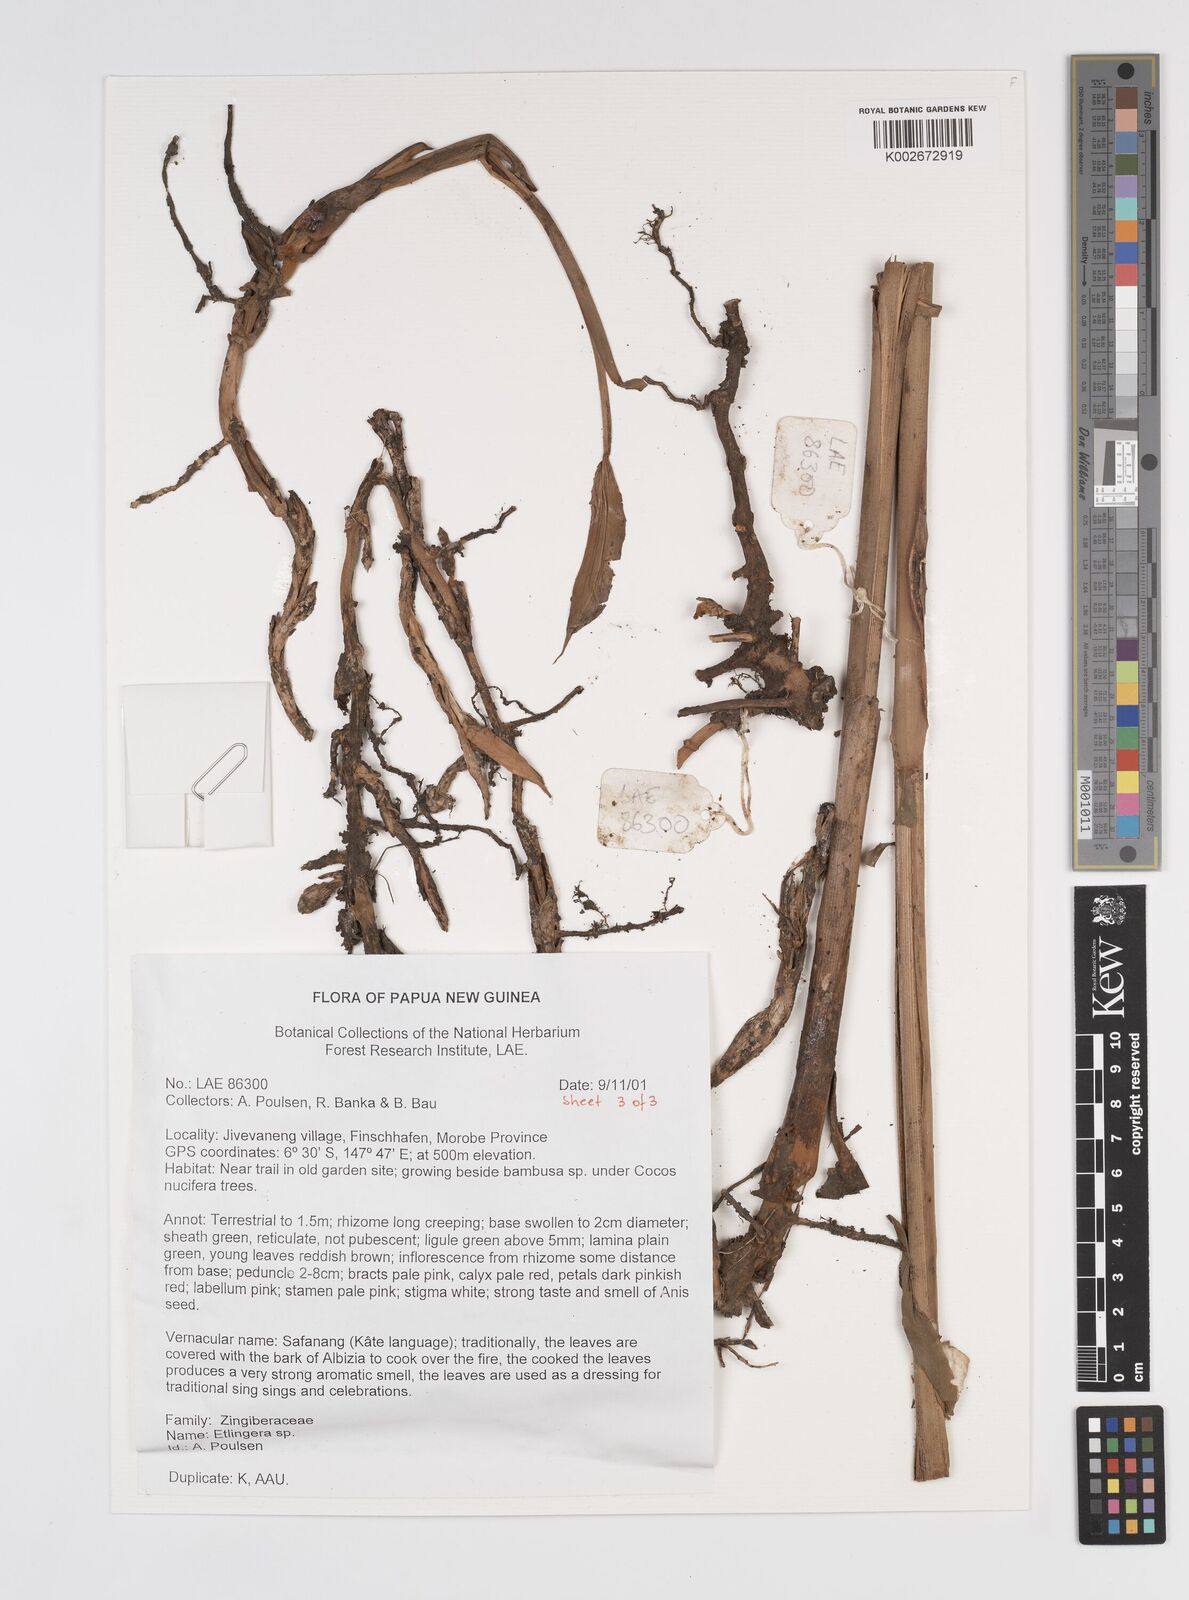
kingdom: Plantae
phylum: Tracheophyta
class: Liliopsida
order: Zingiberales
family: Zingiberaceae
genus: Etlingera
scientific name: Etlingera
